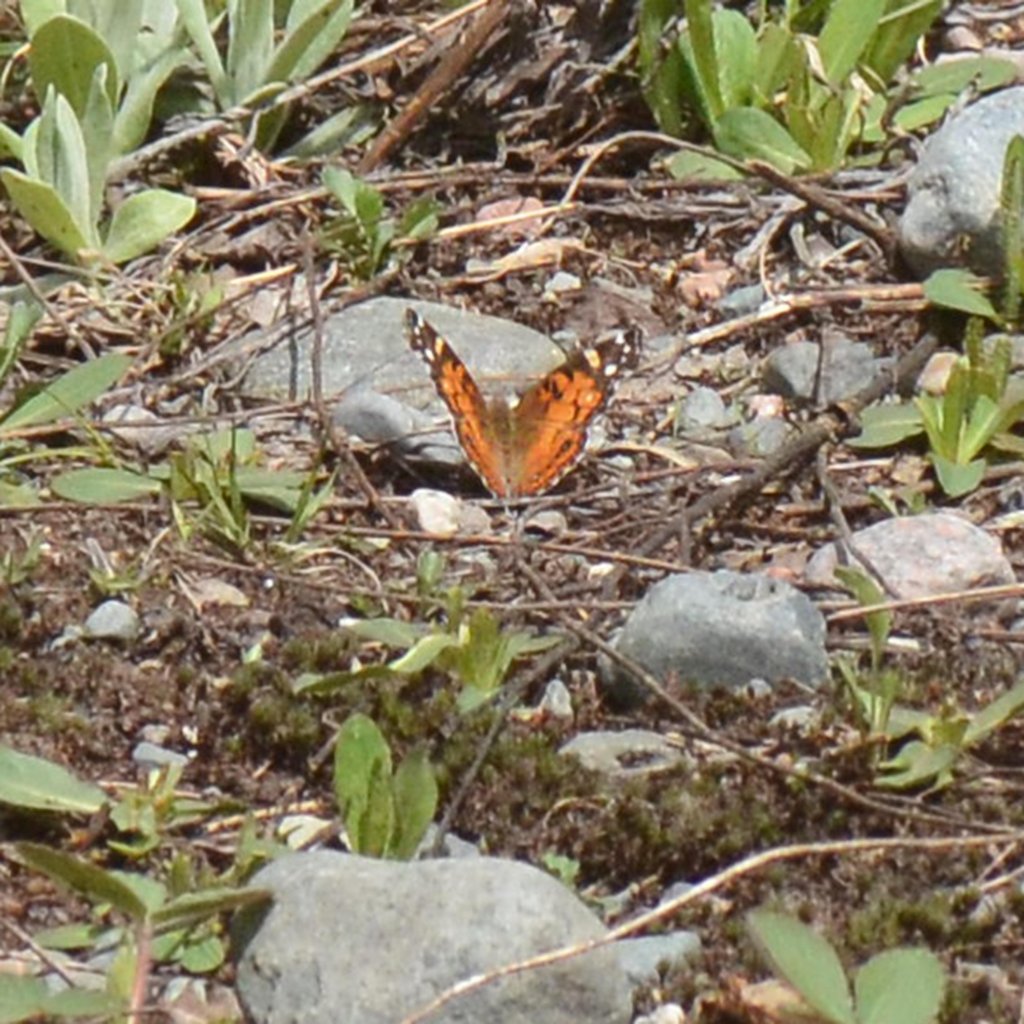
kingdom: Animalia
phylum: Arthropoda
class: Insecta
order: Lepidoptera
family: Nymphalidae
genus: Vanessa
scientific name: Vanessa virginiensis
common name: American Lady
